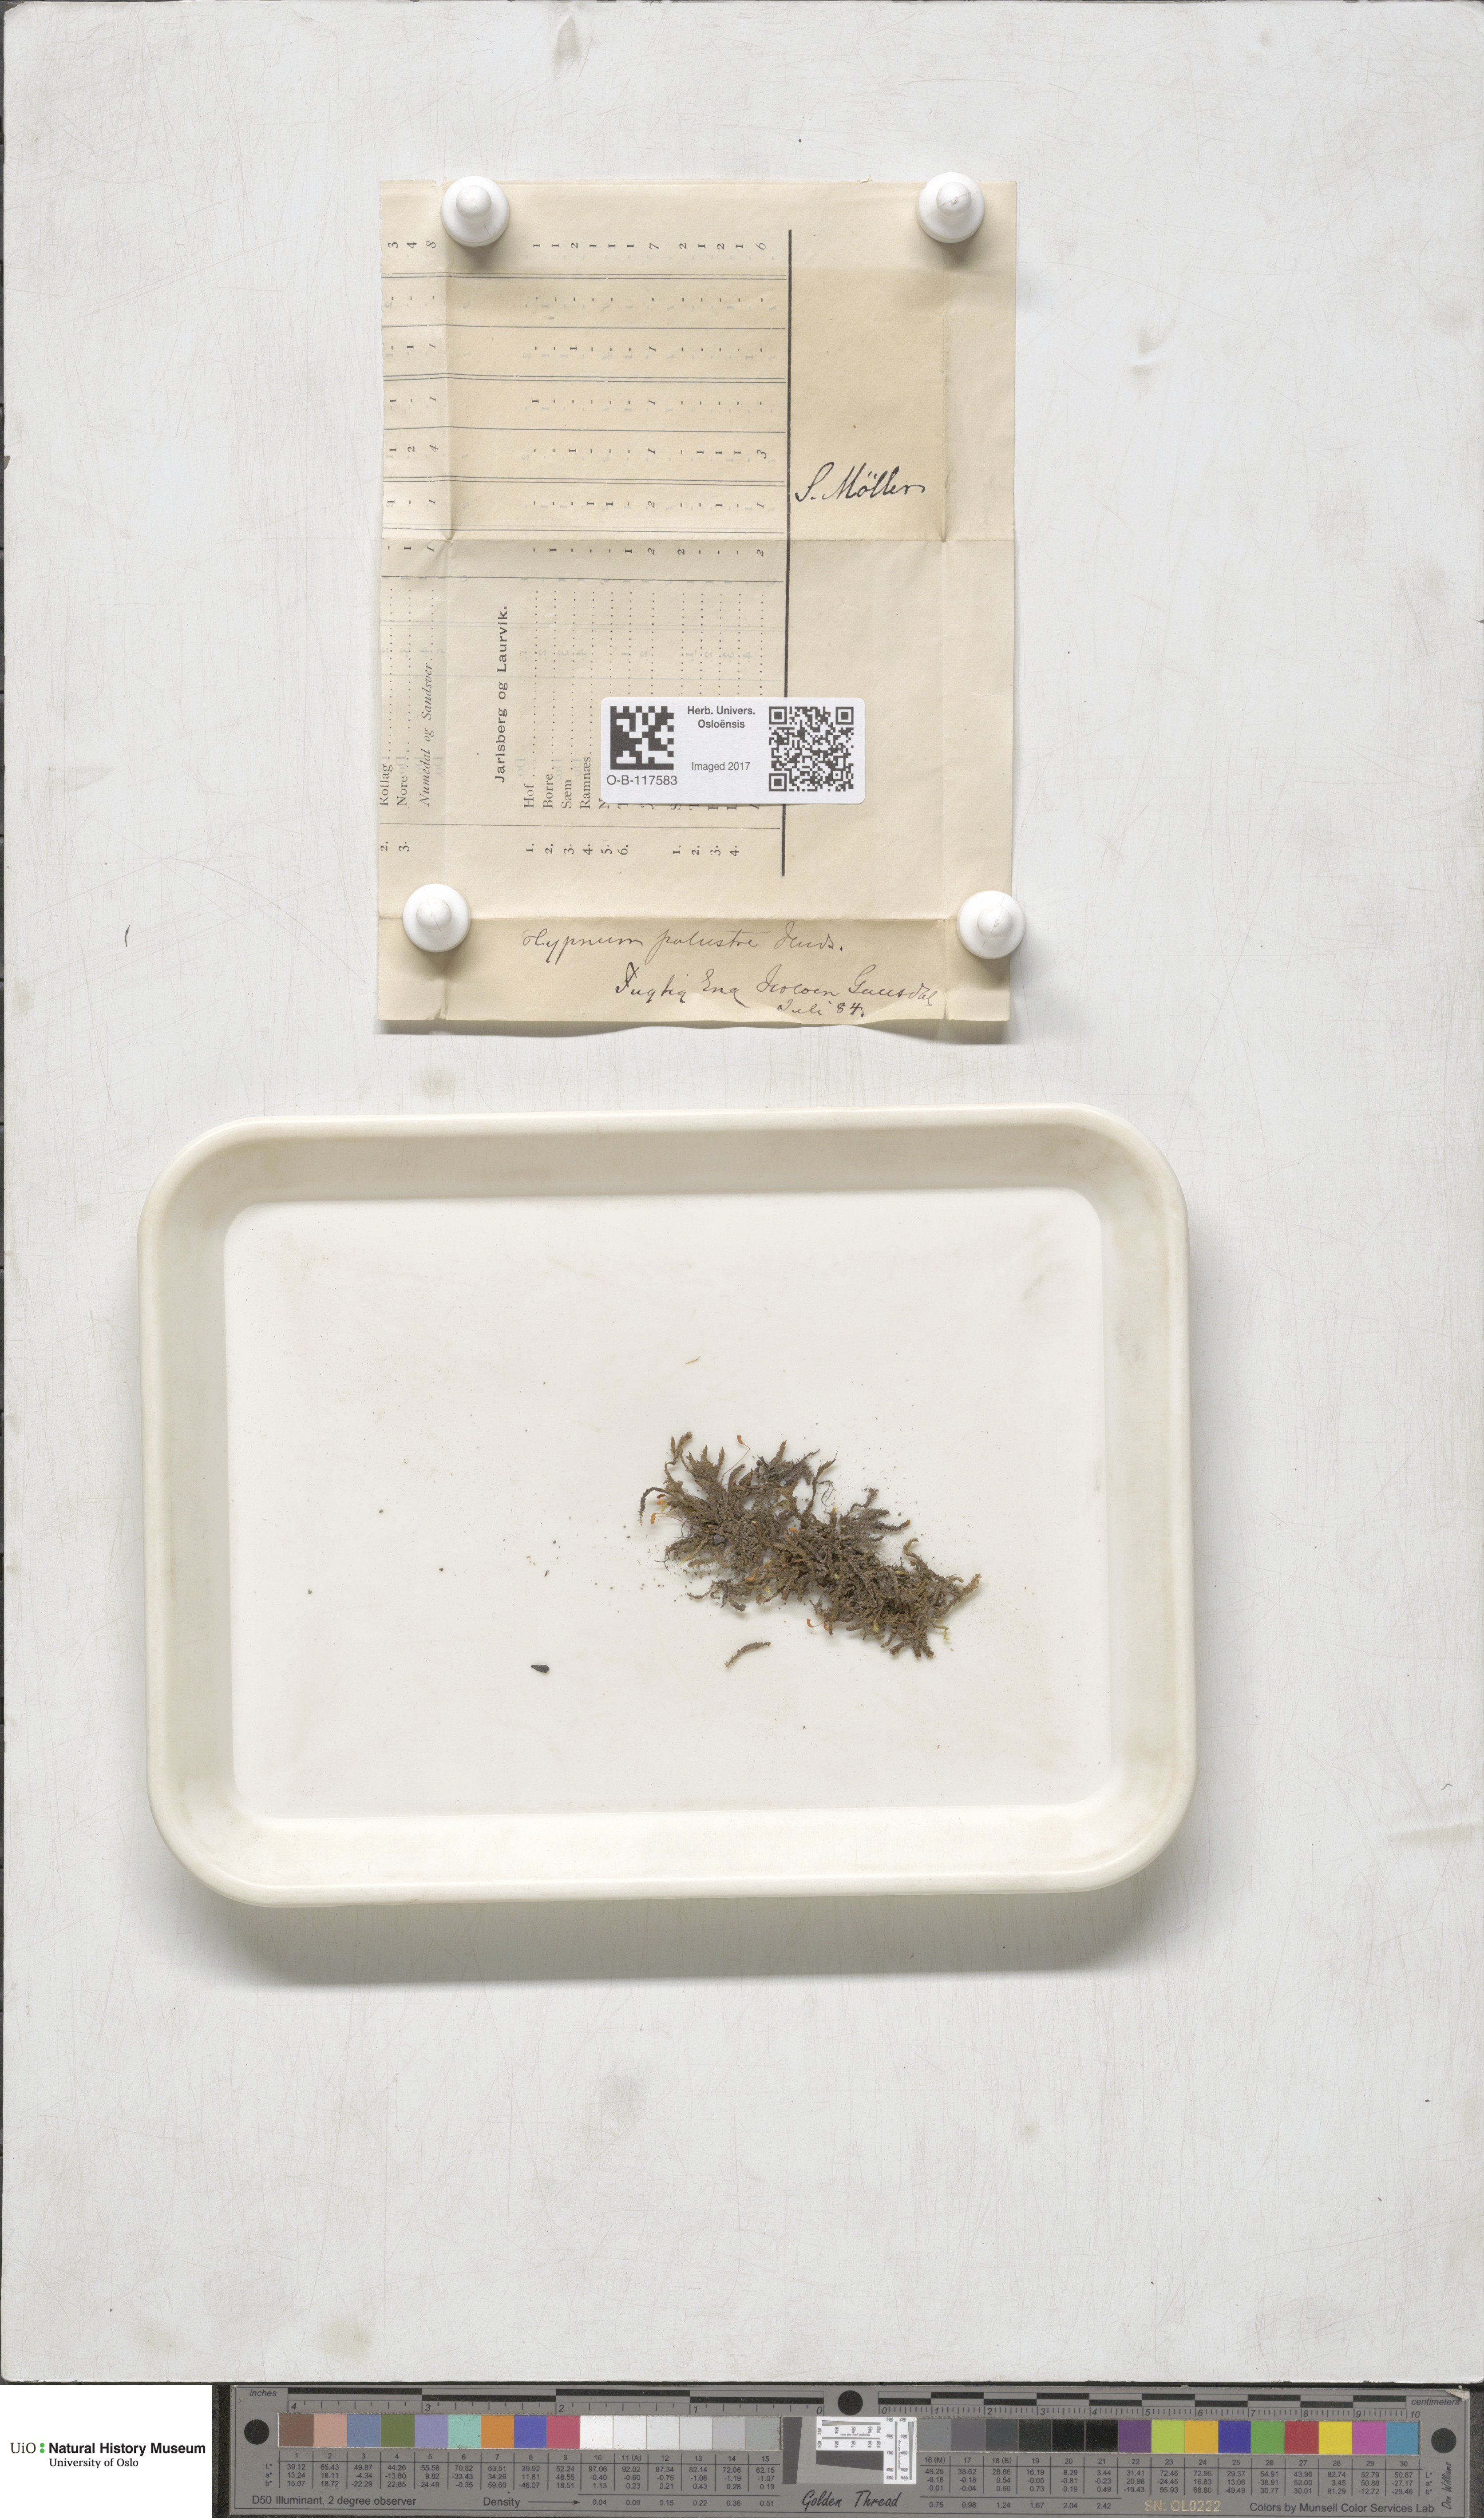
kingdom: Plantae
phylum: Bryophyta
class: Bryopsida
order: Hypnales
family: Amblystegiaceae
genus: Hygrohypnum
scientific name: Hygrohypnum luridum
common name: Drab brook moss
